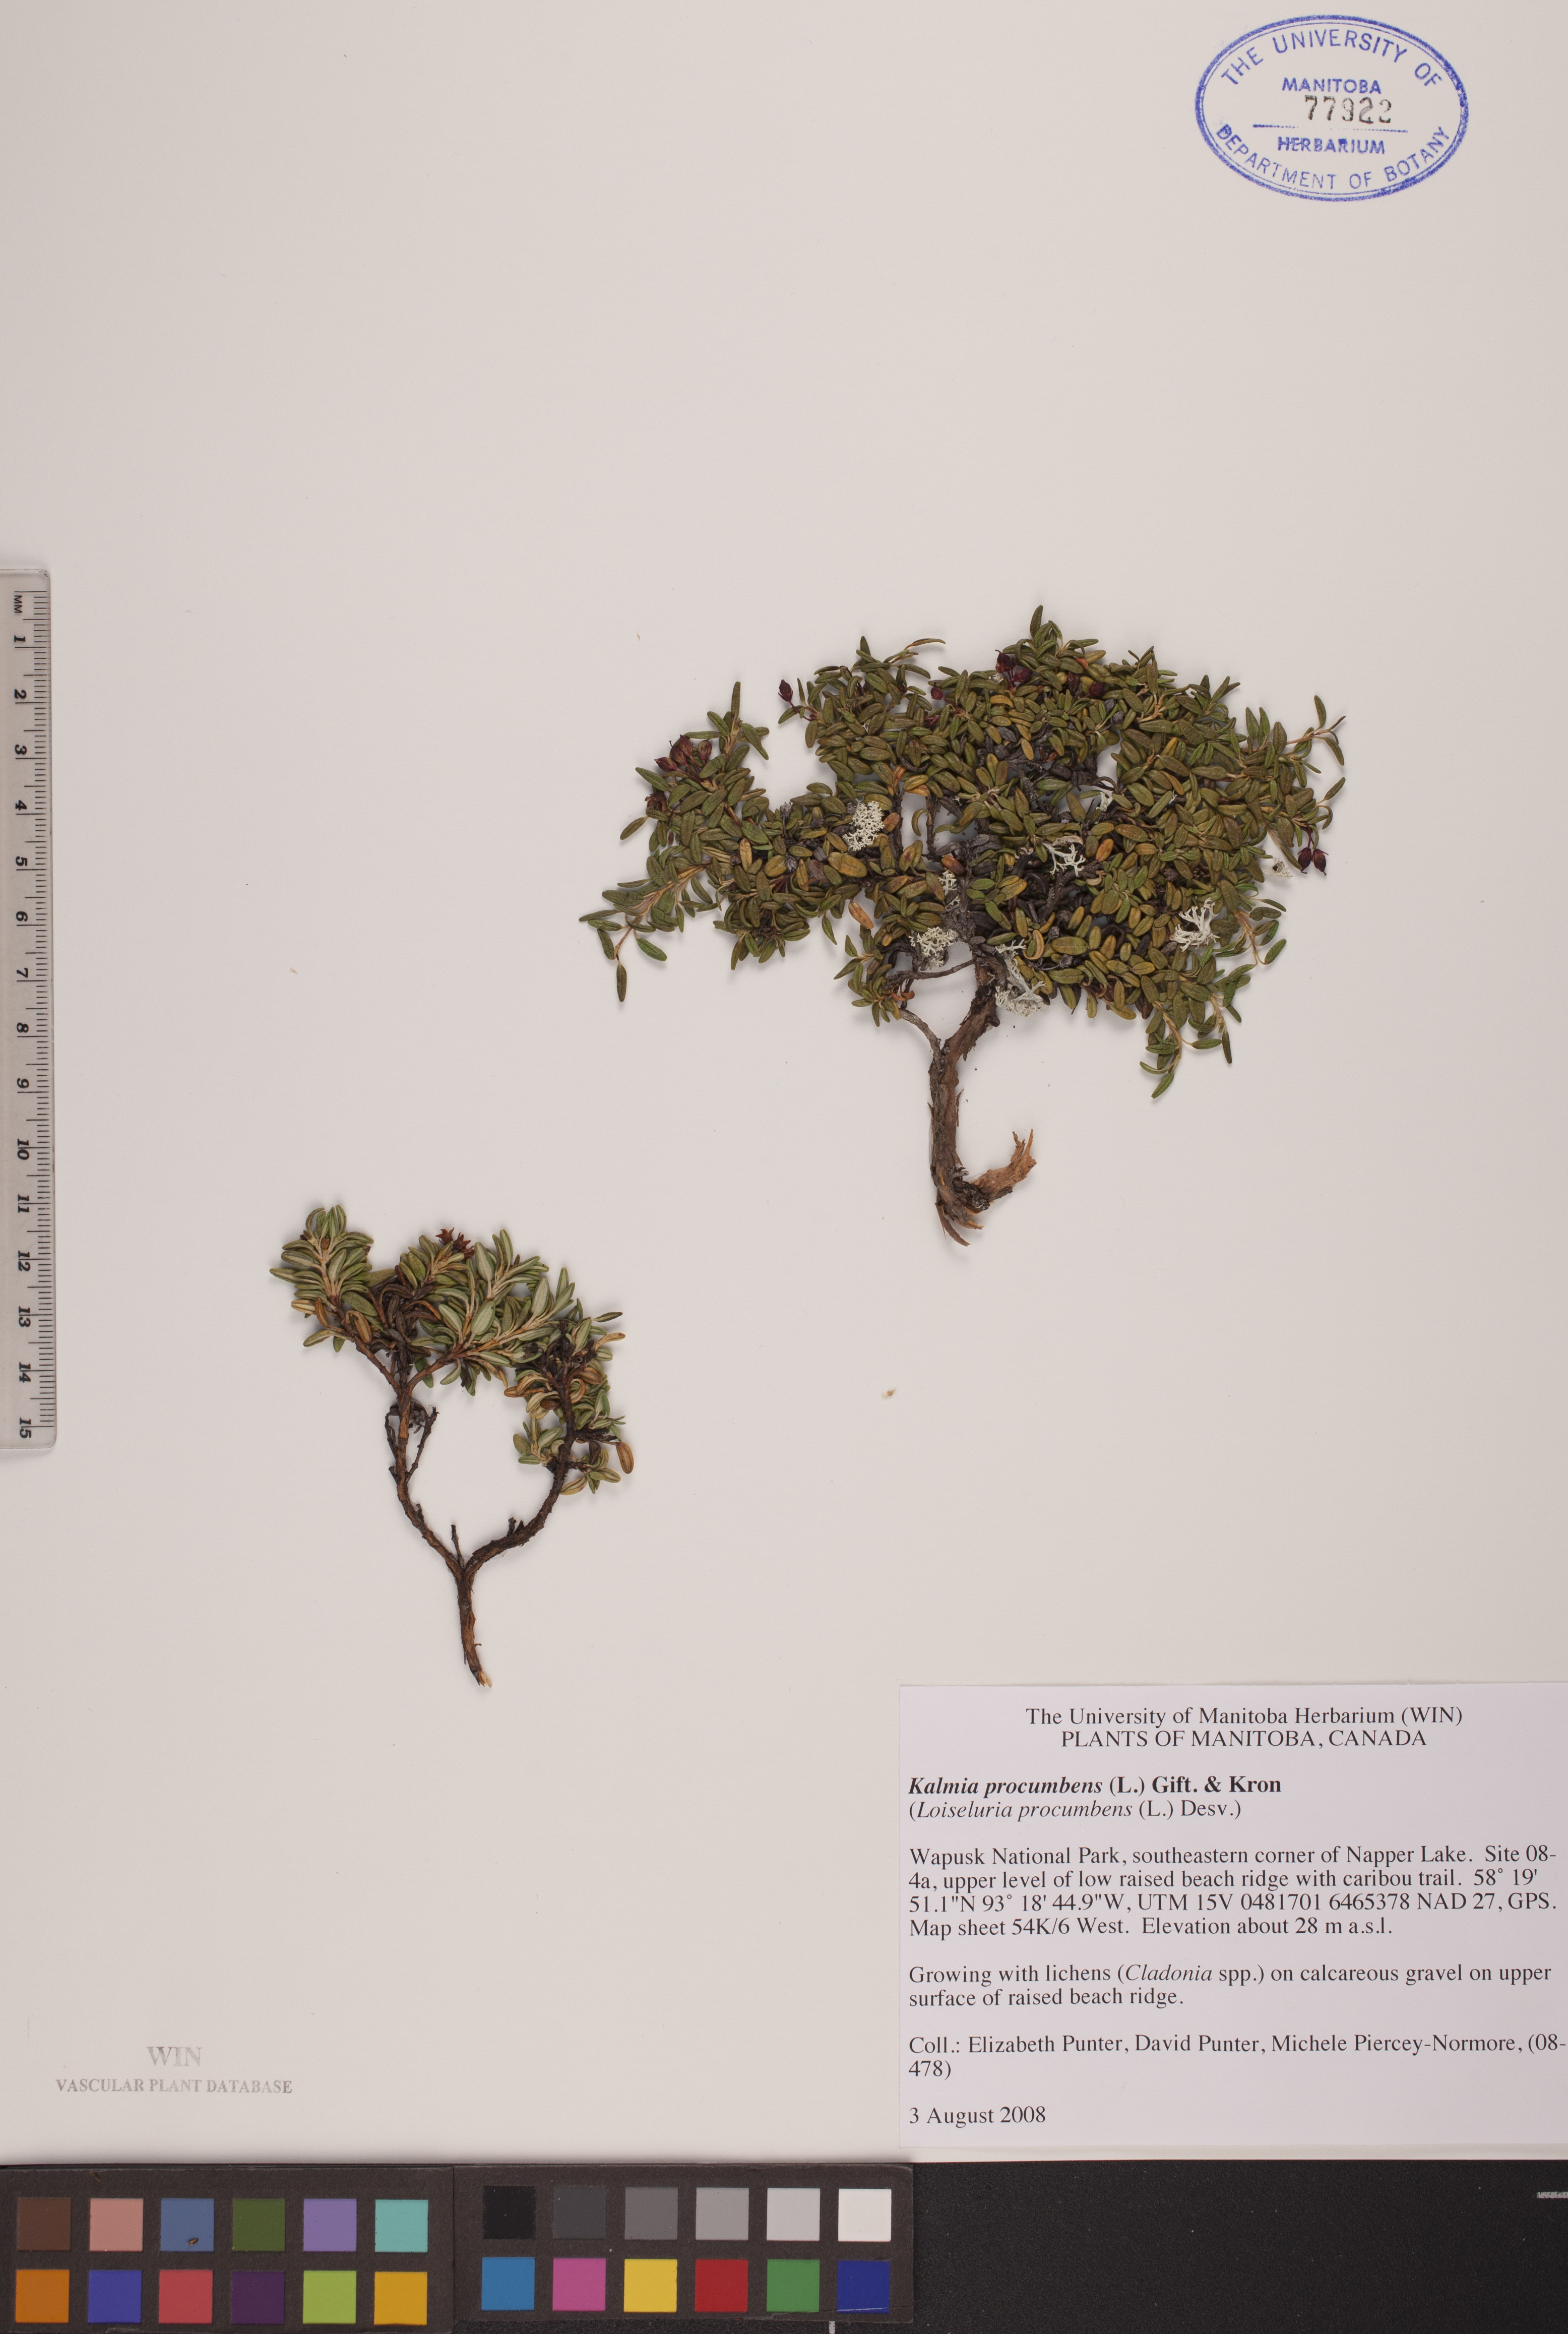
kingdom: Plantae
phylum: Tracheophyta
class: Magnoliopsida
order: Ericales
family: Ericaceae
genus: Kalmia
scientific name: Kalmia procumbens
